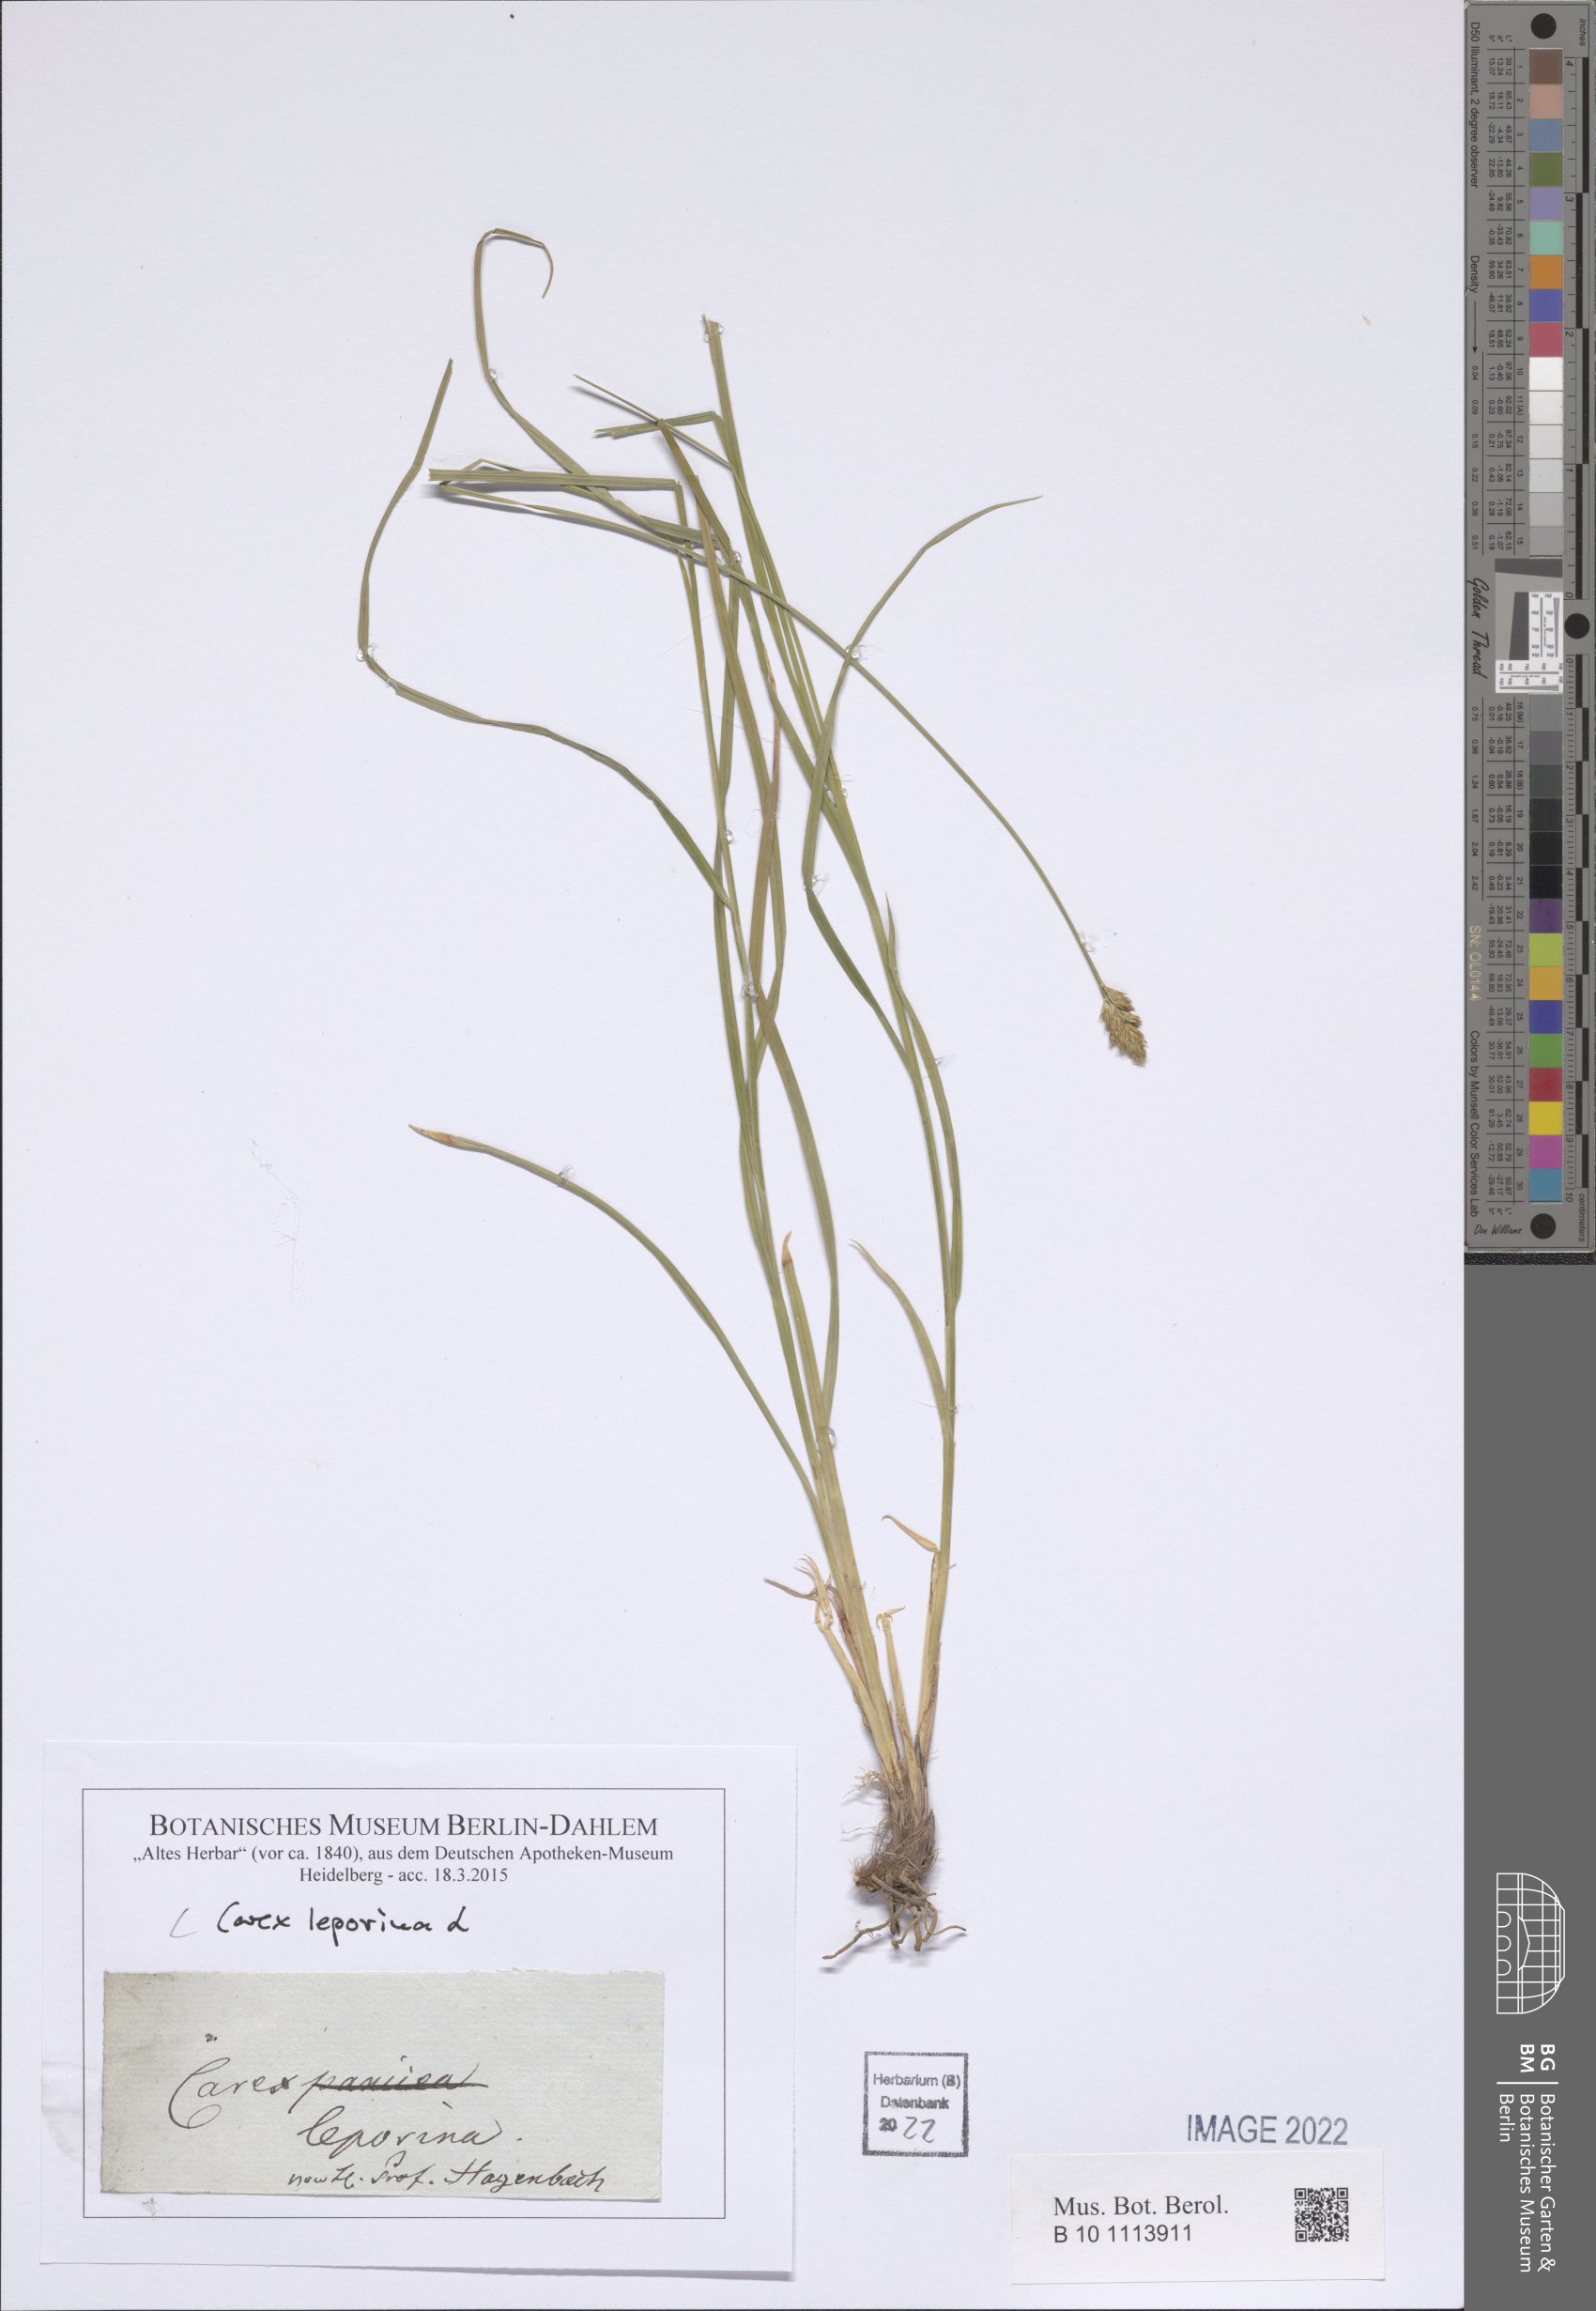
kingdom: Plantae
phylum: Tracheophyta
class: Liliopsida
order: Poales
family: Cyperaceae
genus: Carex
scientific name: Carex leporina
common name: Oval sedge
